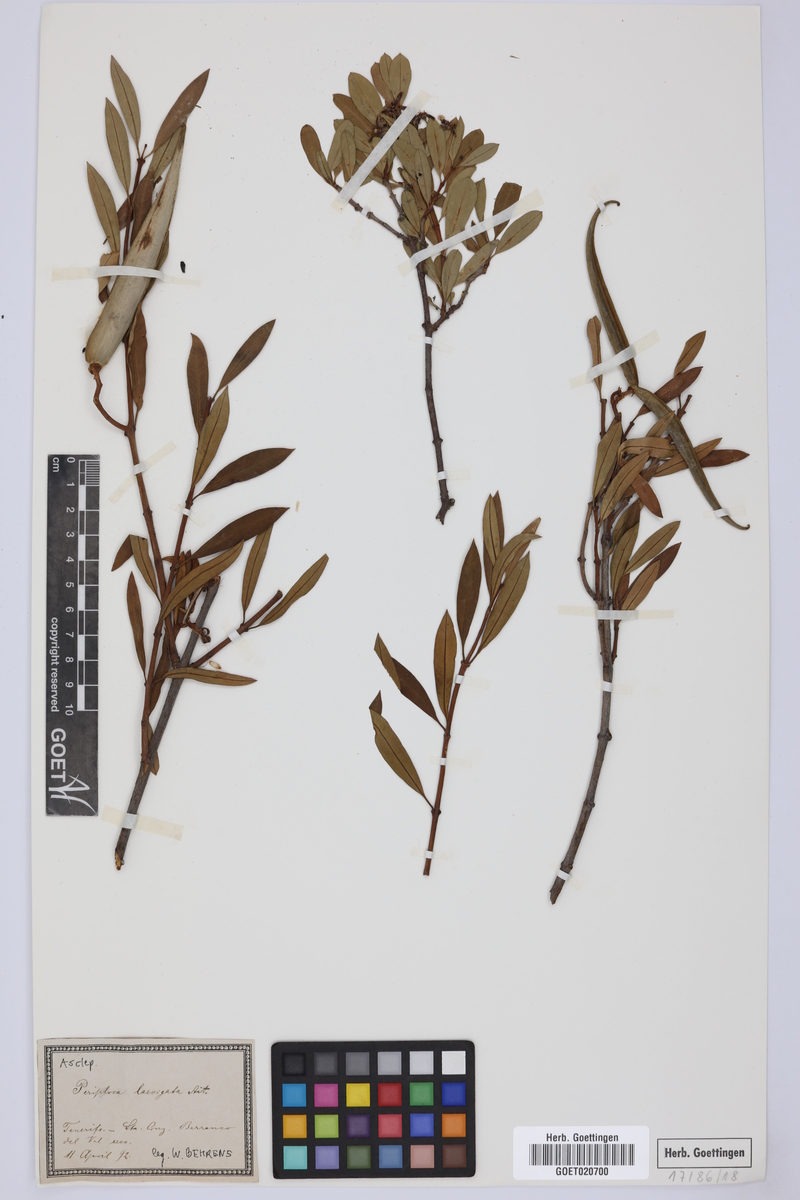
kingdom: Plantae
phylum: Tracheophyta
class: Magnoliopsida
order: Gentianales
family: Apocynaceae
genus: Periploca
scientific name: Periploca laevigata
